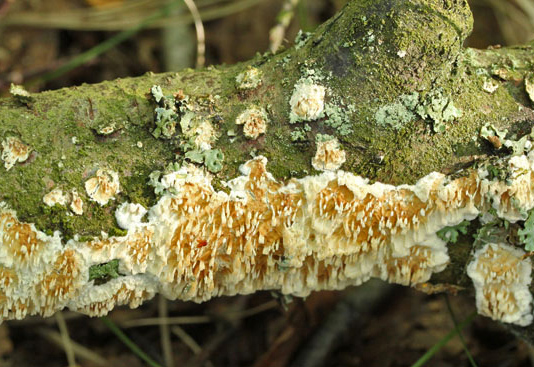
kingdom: Fungi
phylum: Basidiomycota
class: Agaricomycetes
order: Hymenochaetales
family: Schizoporaceae
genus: Xylodon
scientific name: Xylodon radula
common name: grovtandet kalkskind
